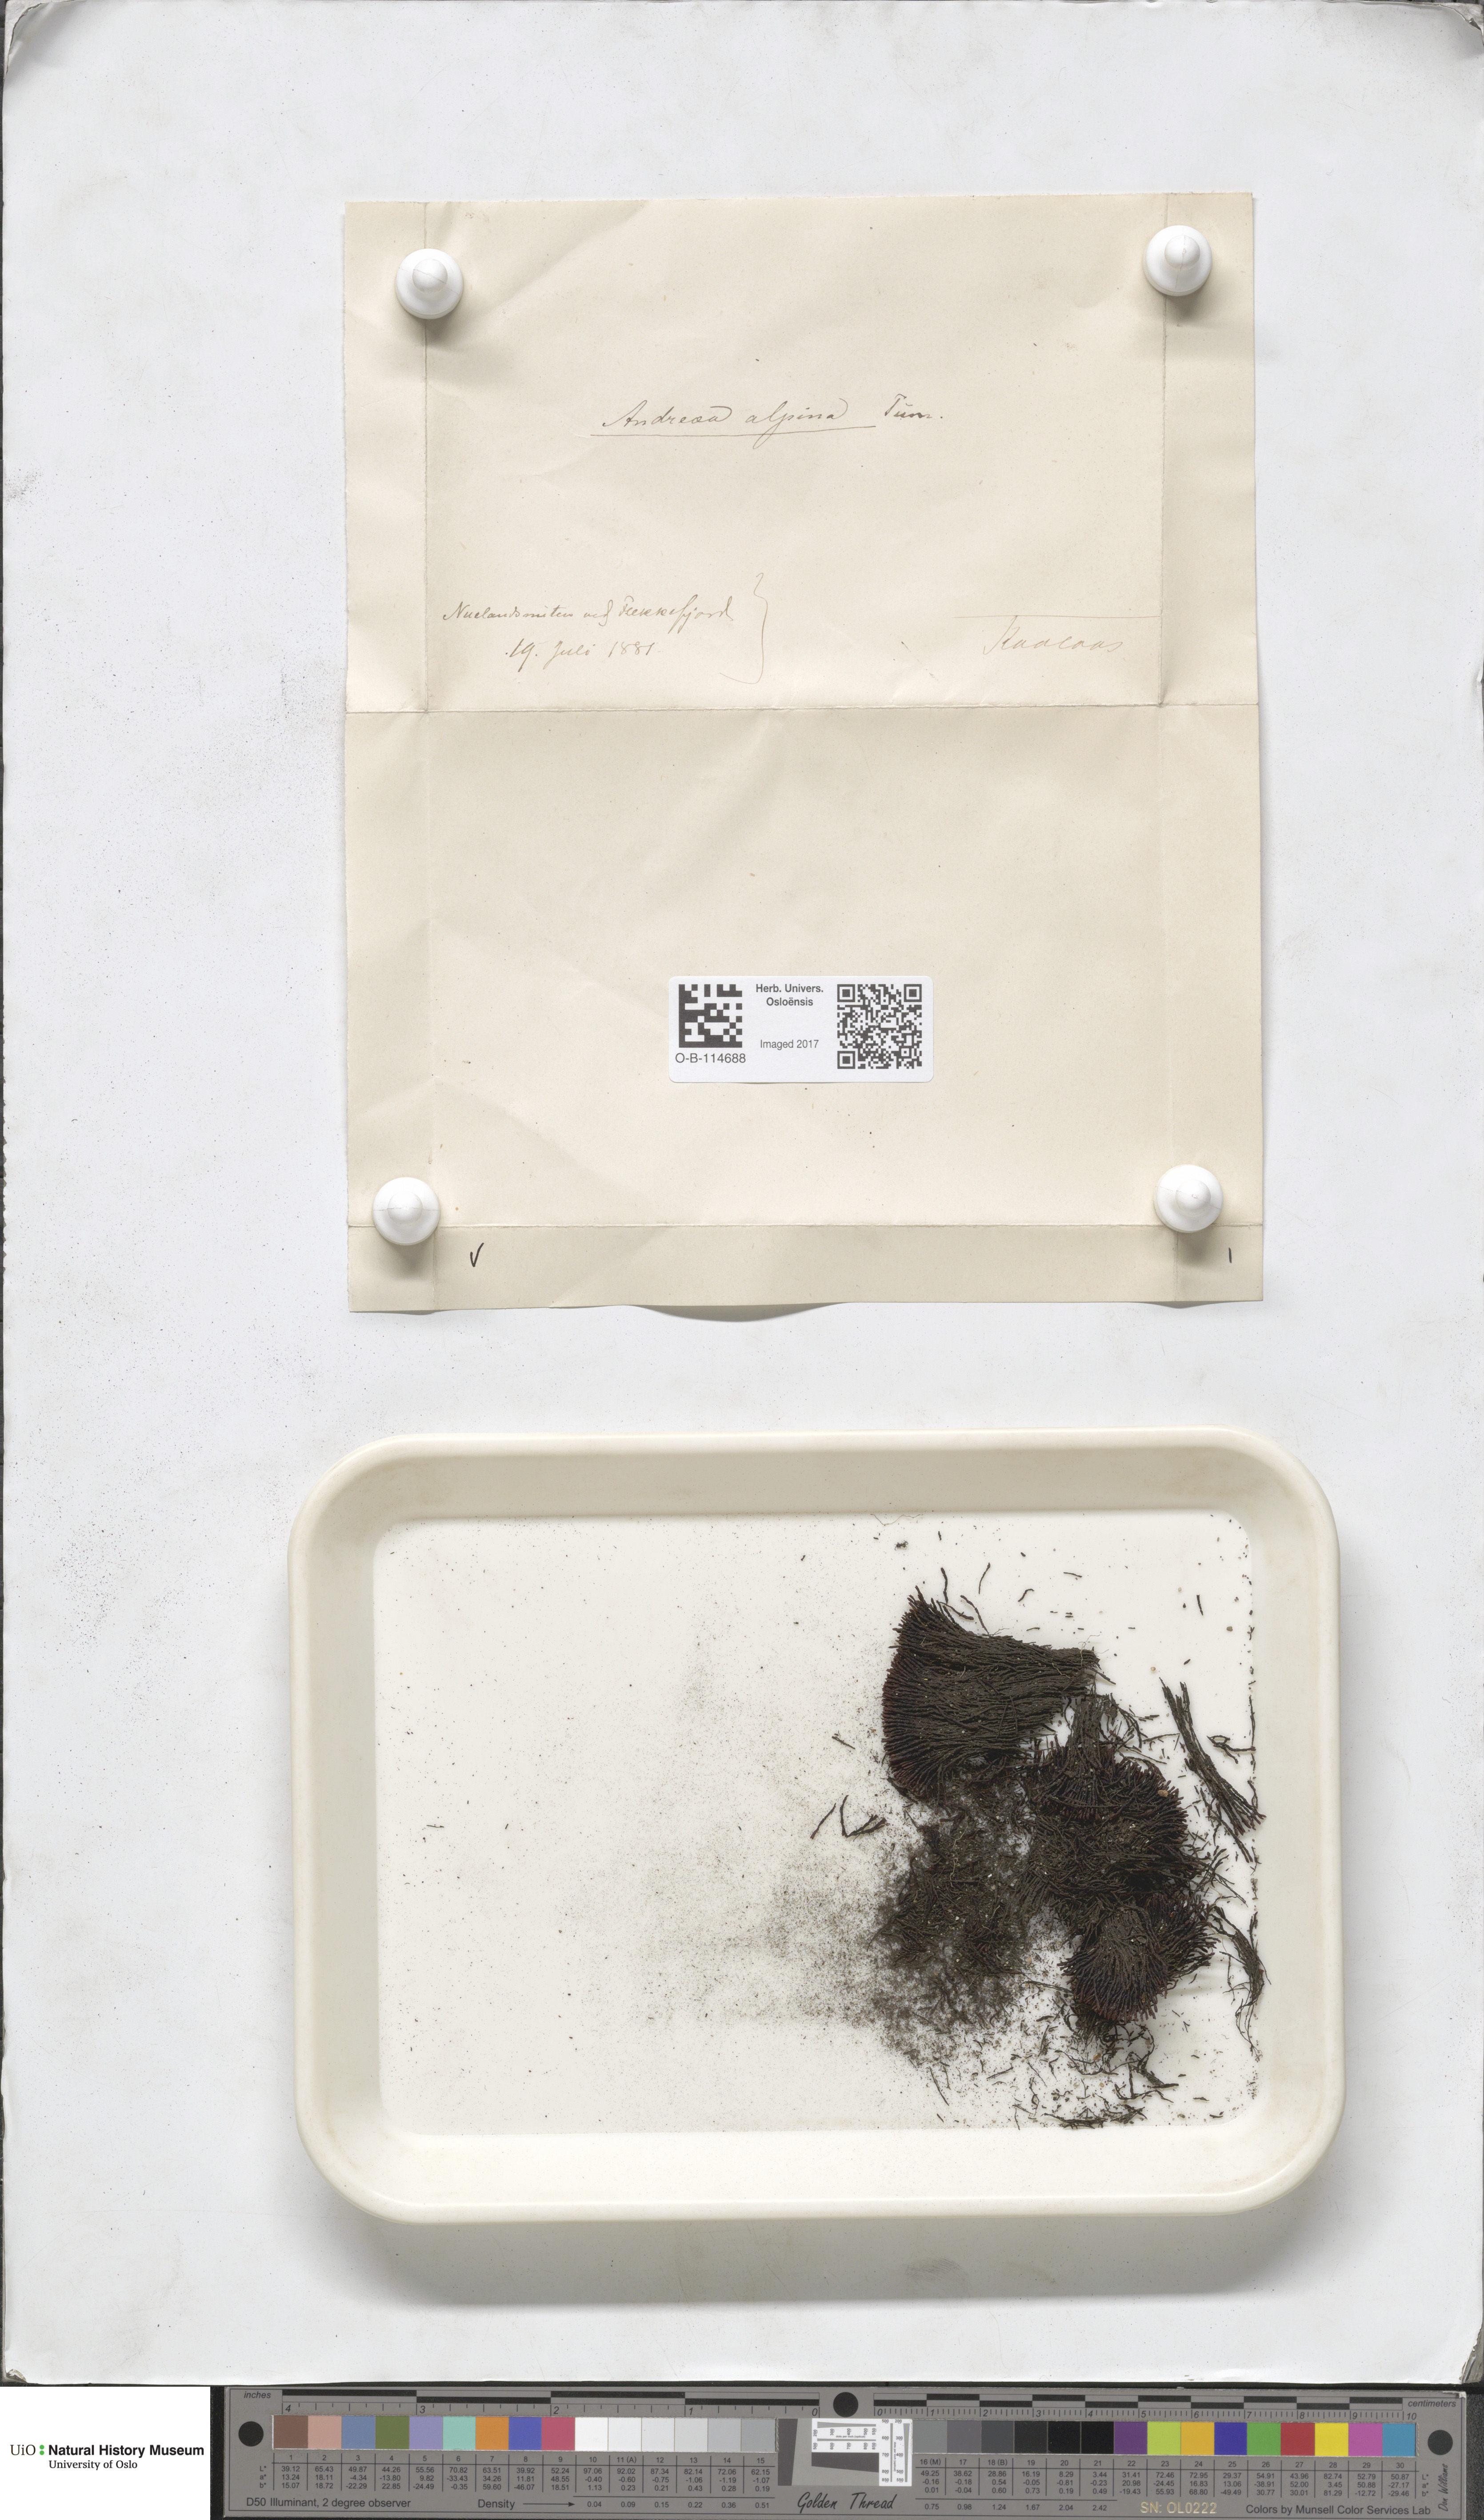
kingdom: Plantae
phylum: Bryophyta
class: Andreaeopsida
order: Andreaeales
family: Andreaeaceae
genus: Andreaea
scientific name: Andreaea hookeri
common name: Alpine rock-moss
